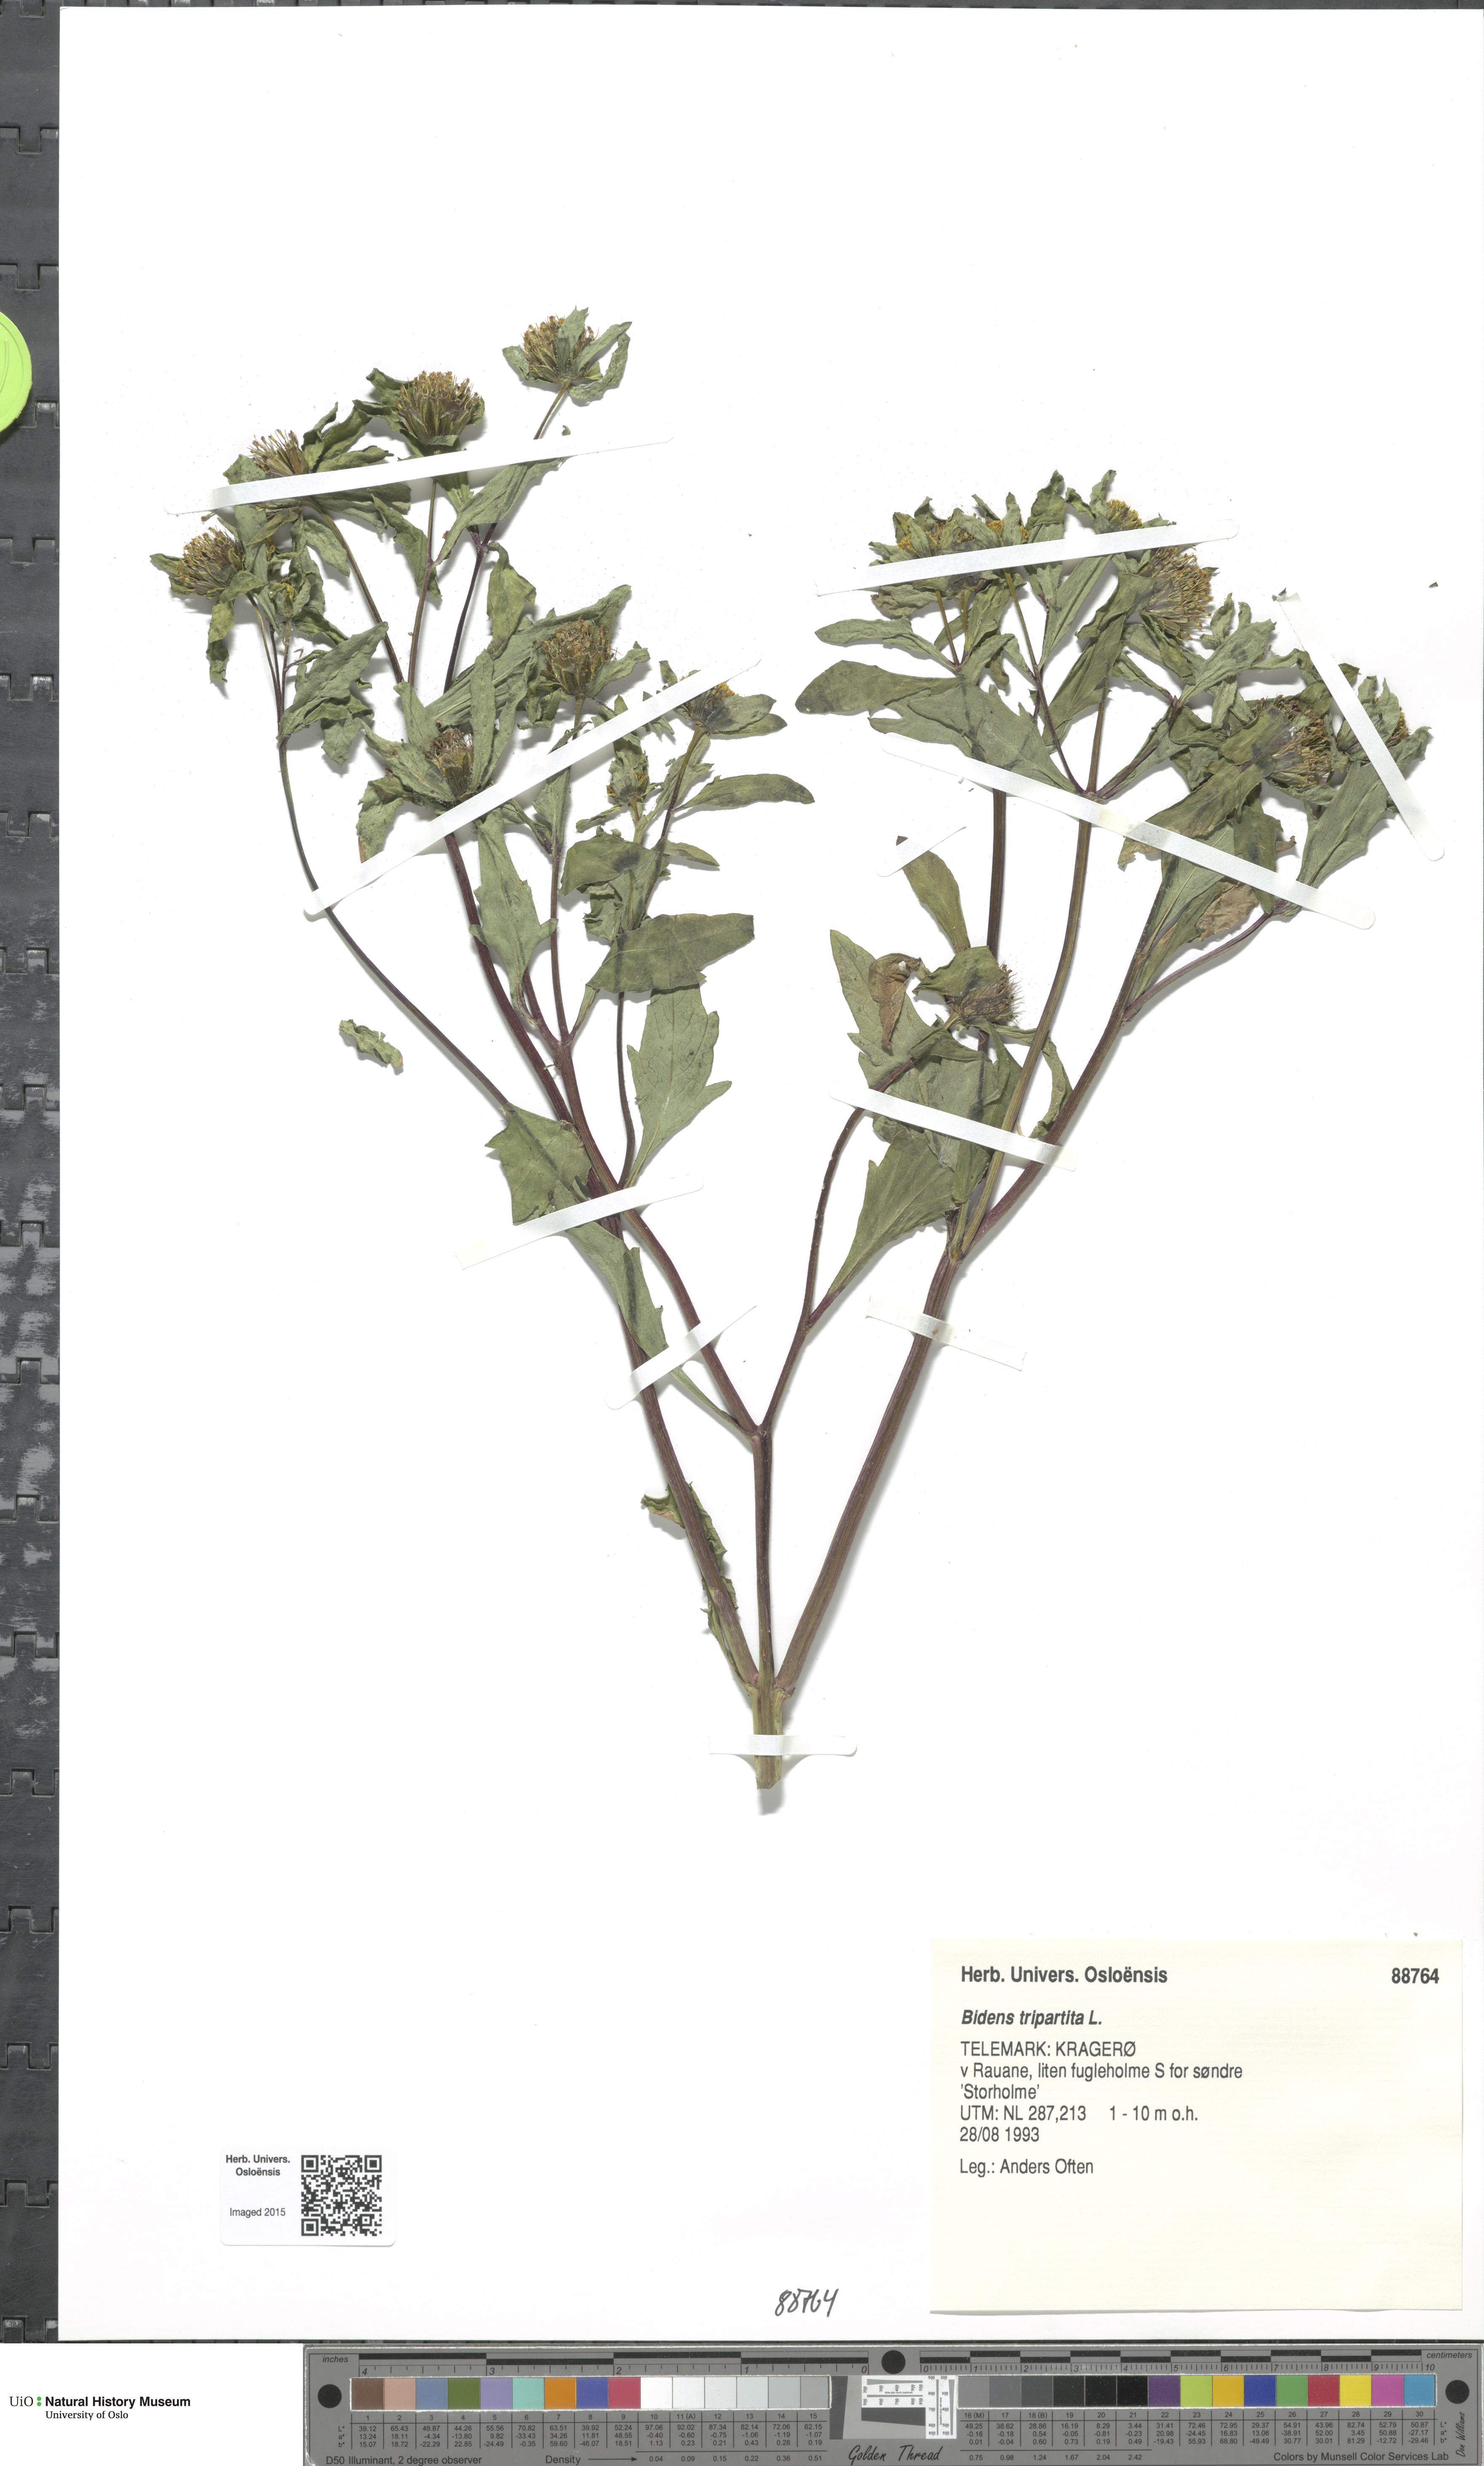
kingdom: Plantae
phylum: Tracheophyta
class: Magnoliopsida
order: Asterales
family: Asteraceae
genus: Bidens
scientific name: Bidens tripartita
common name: Trifid bur-marigold
